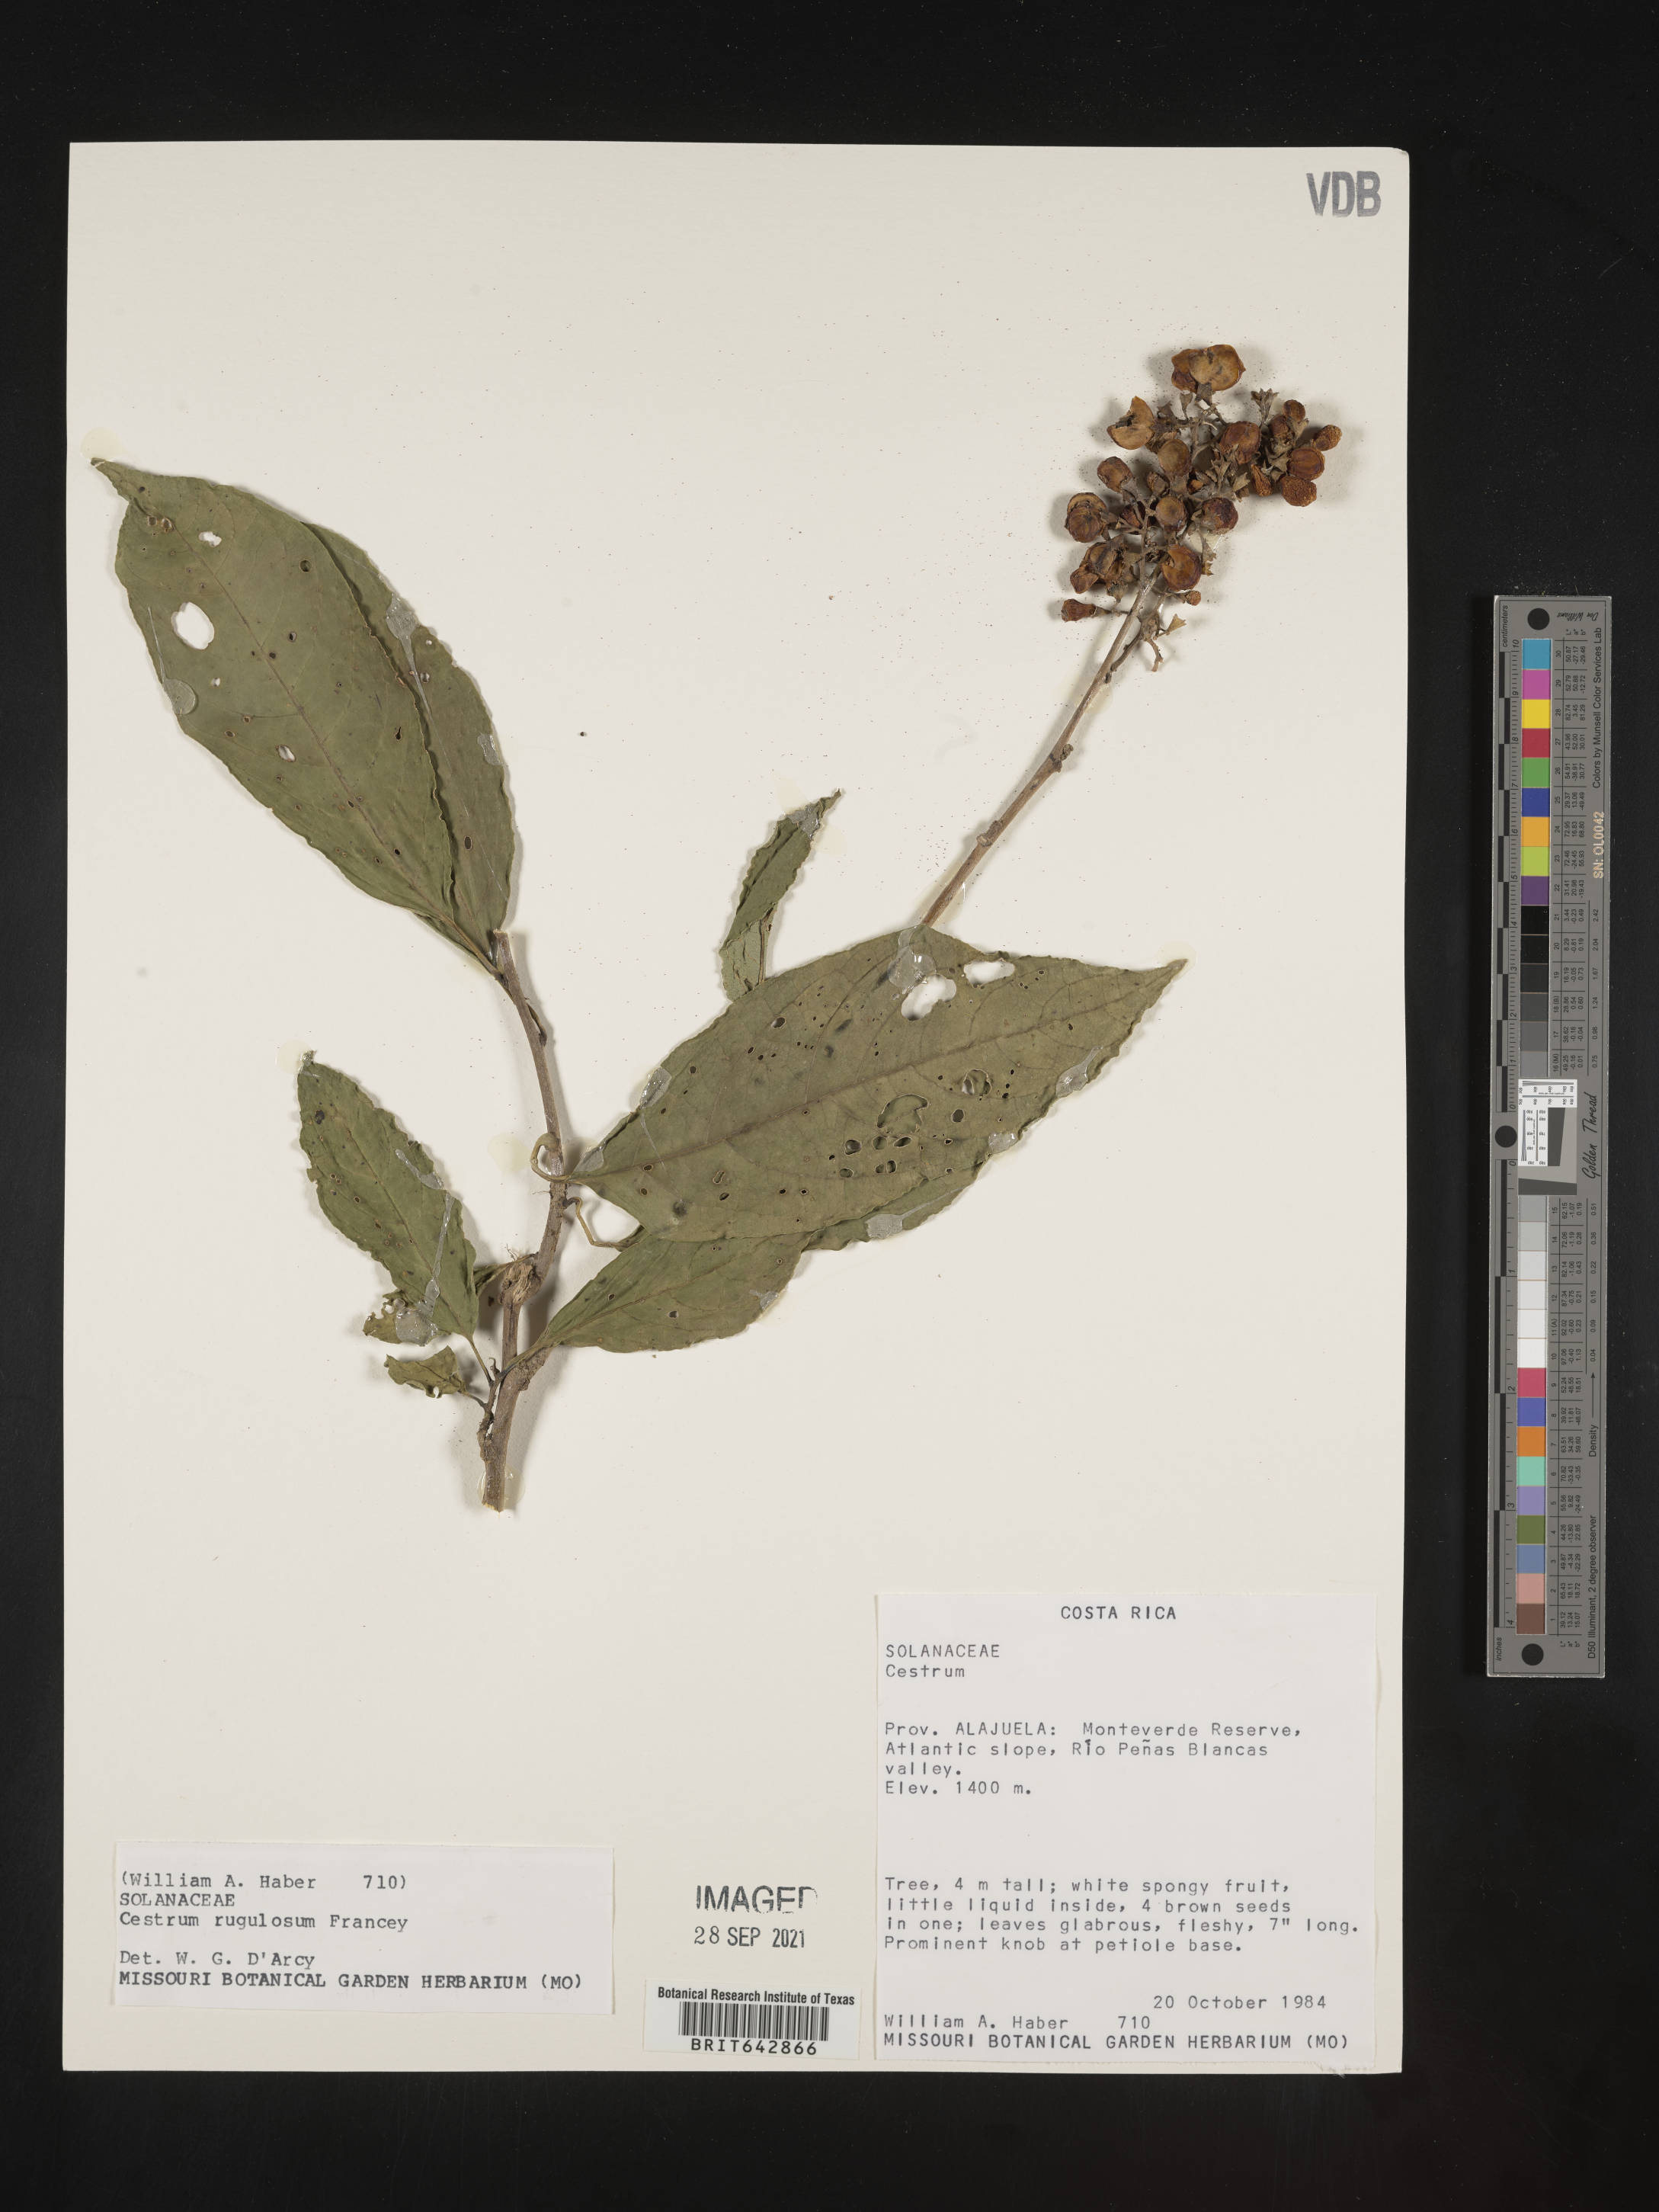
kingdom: Plantae
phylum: Tracheophyta
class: Magnoliopsida
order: Solanales
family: Solanaceae
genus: Cestrum
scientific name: Cestrum
